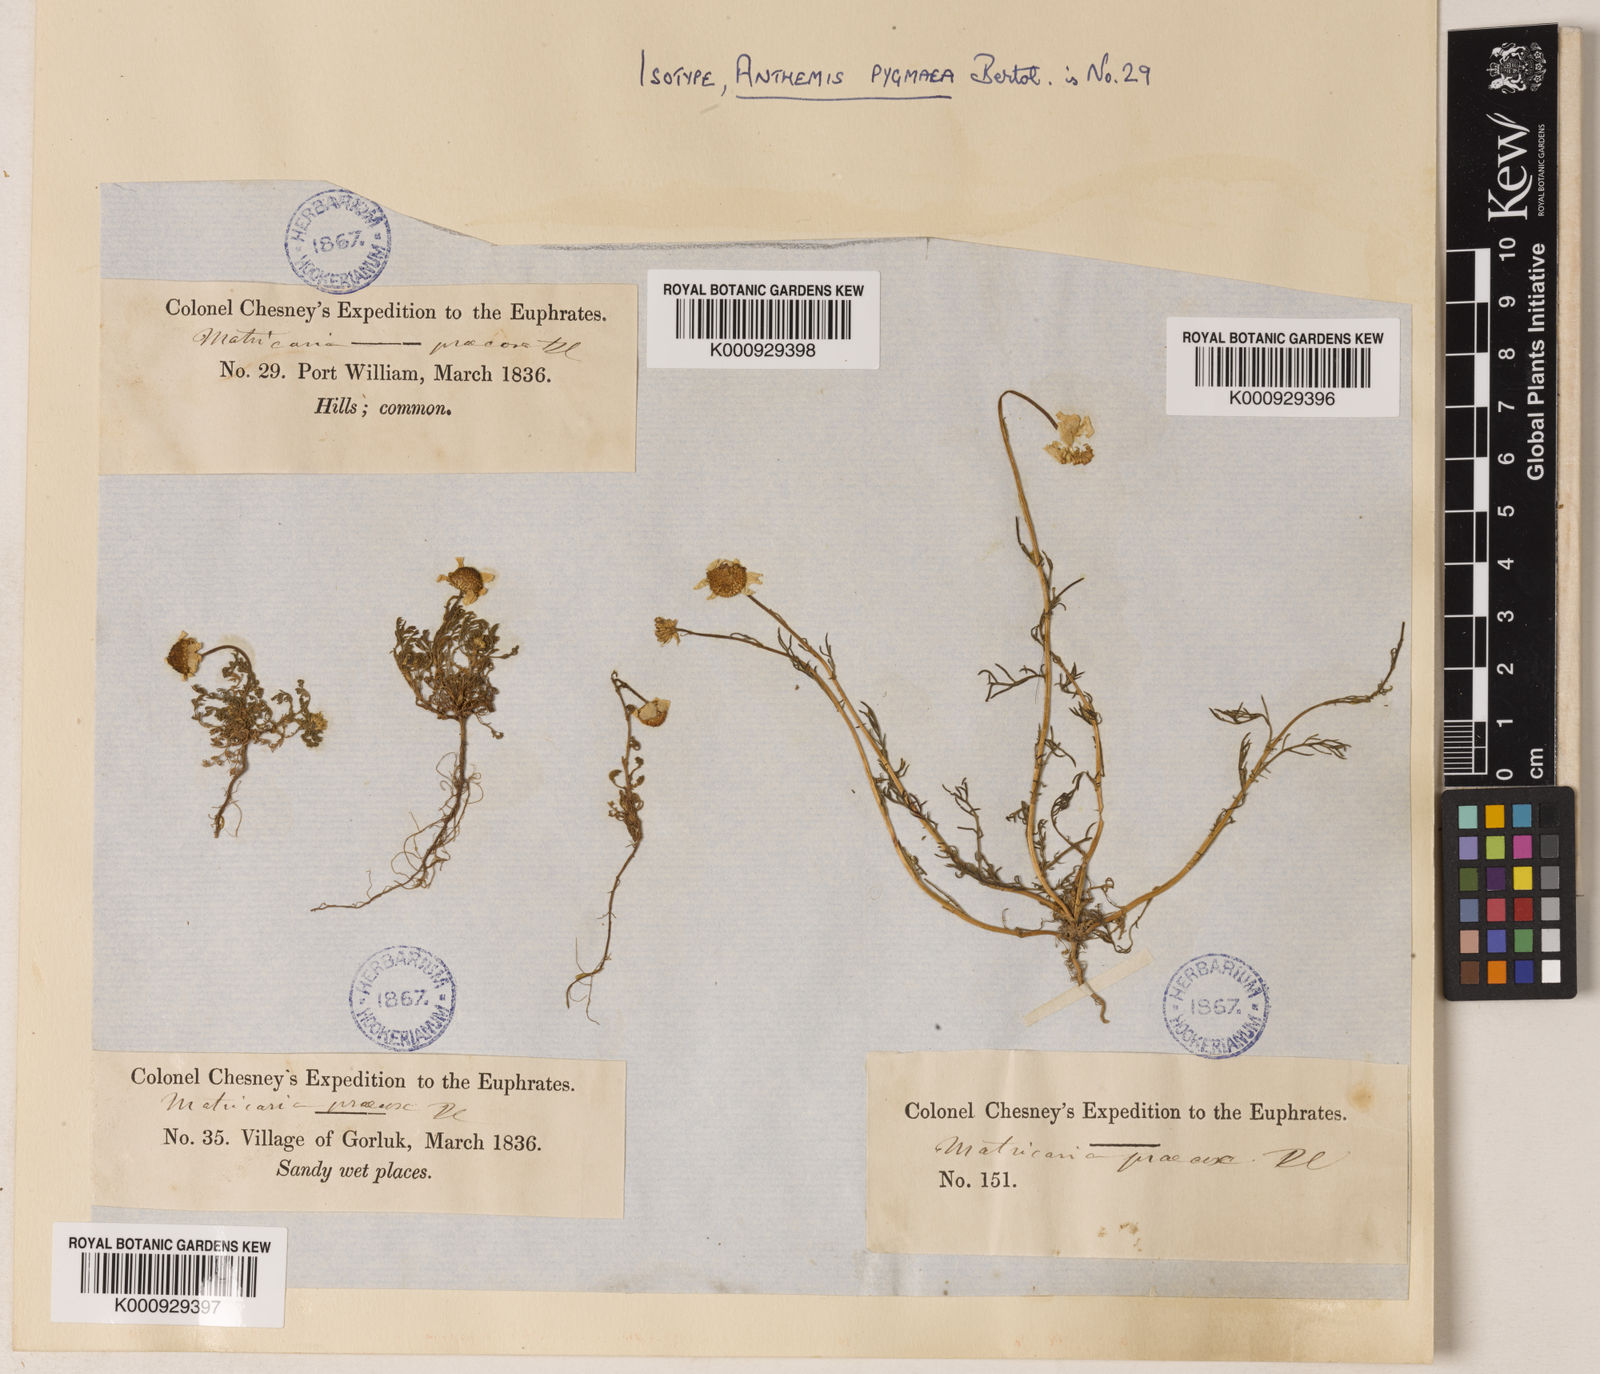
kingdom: Plantae
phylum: Tracheophyta
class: Magnoliopsida
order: Asterales
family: Asteraceae
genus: Tripleurospermum
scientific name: Tripleurospermum parviflorum
